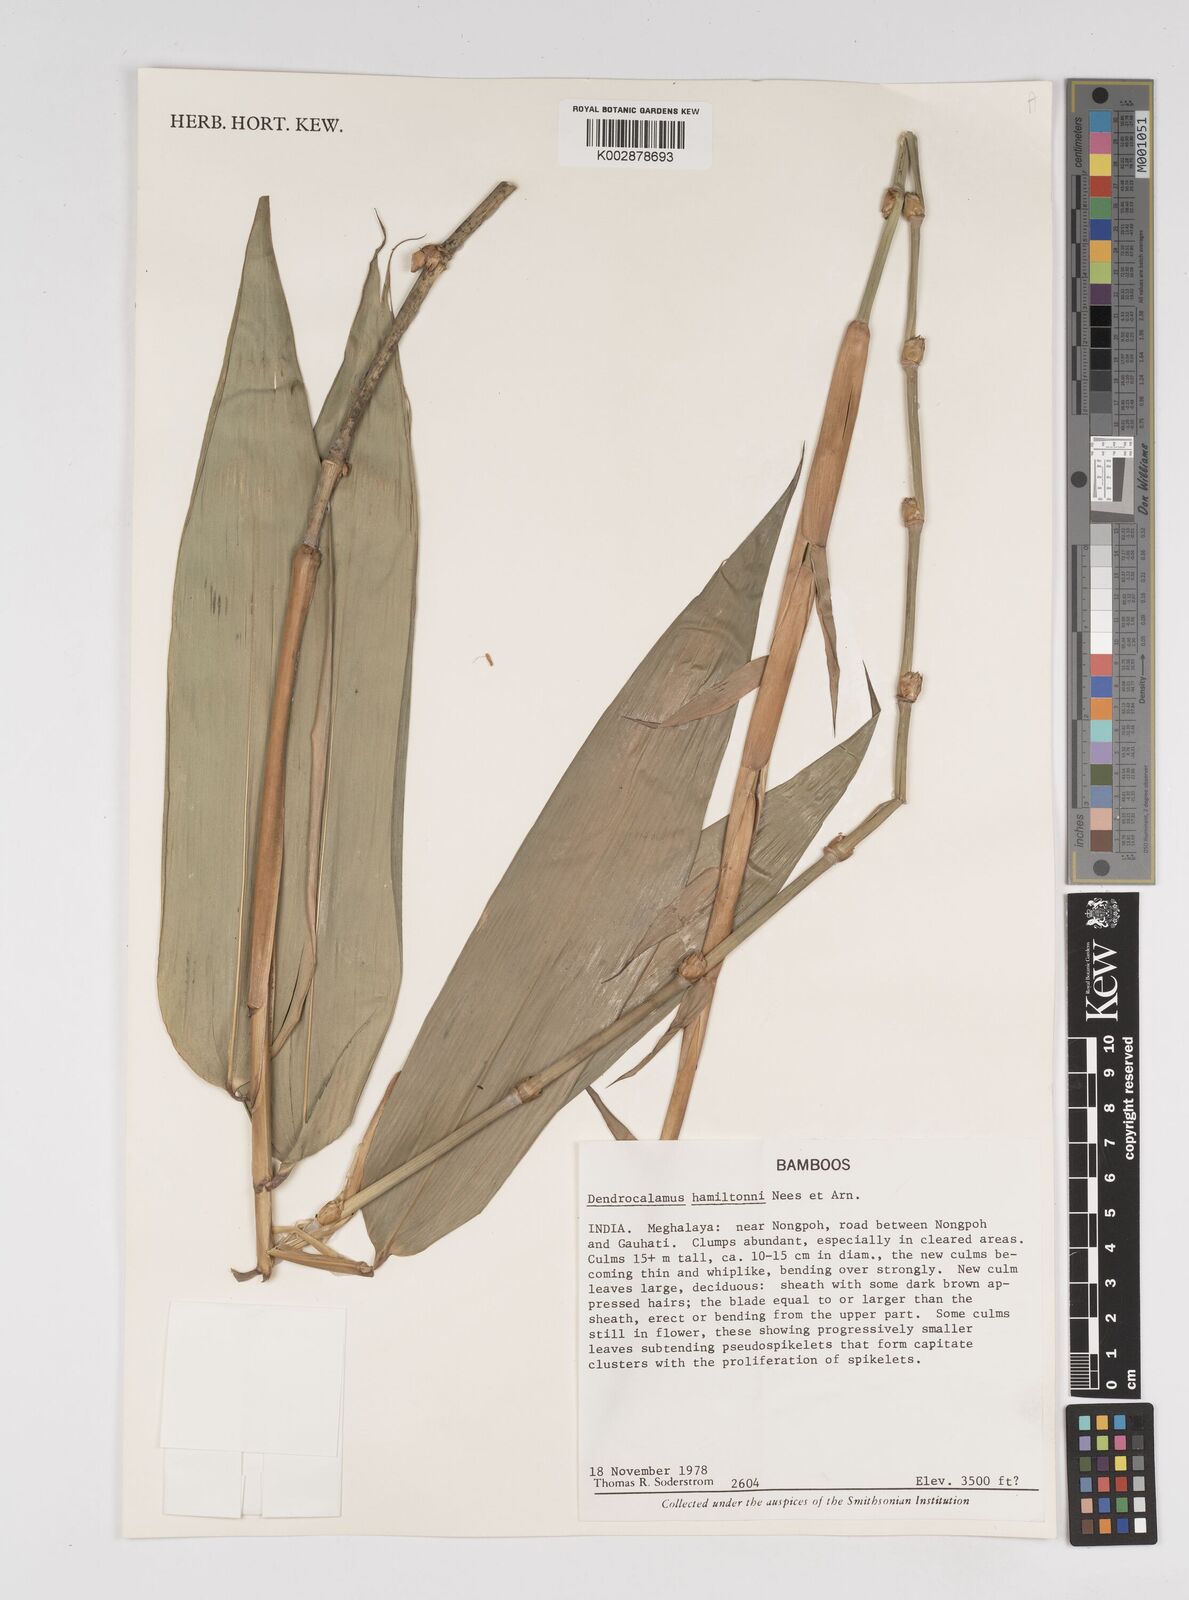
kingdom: Plantae
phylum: Tracheophyta
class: Liliopsida
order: Poales
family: Poaceae
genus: Dendrocalamus
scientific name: Dendrocalamus
